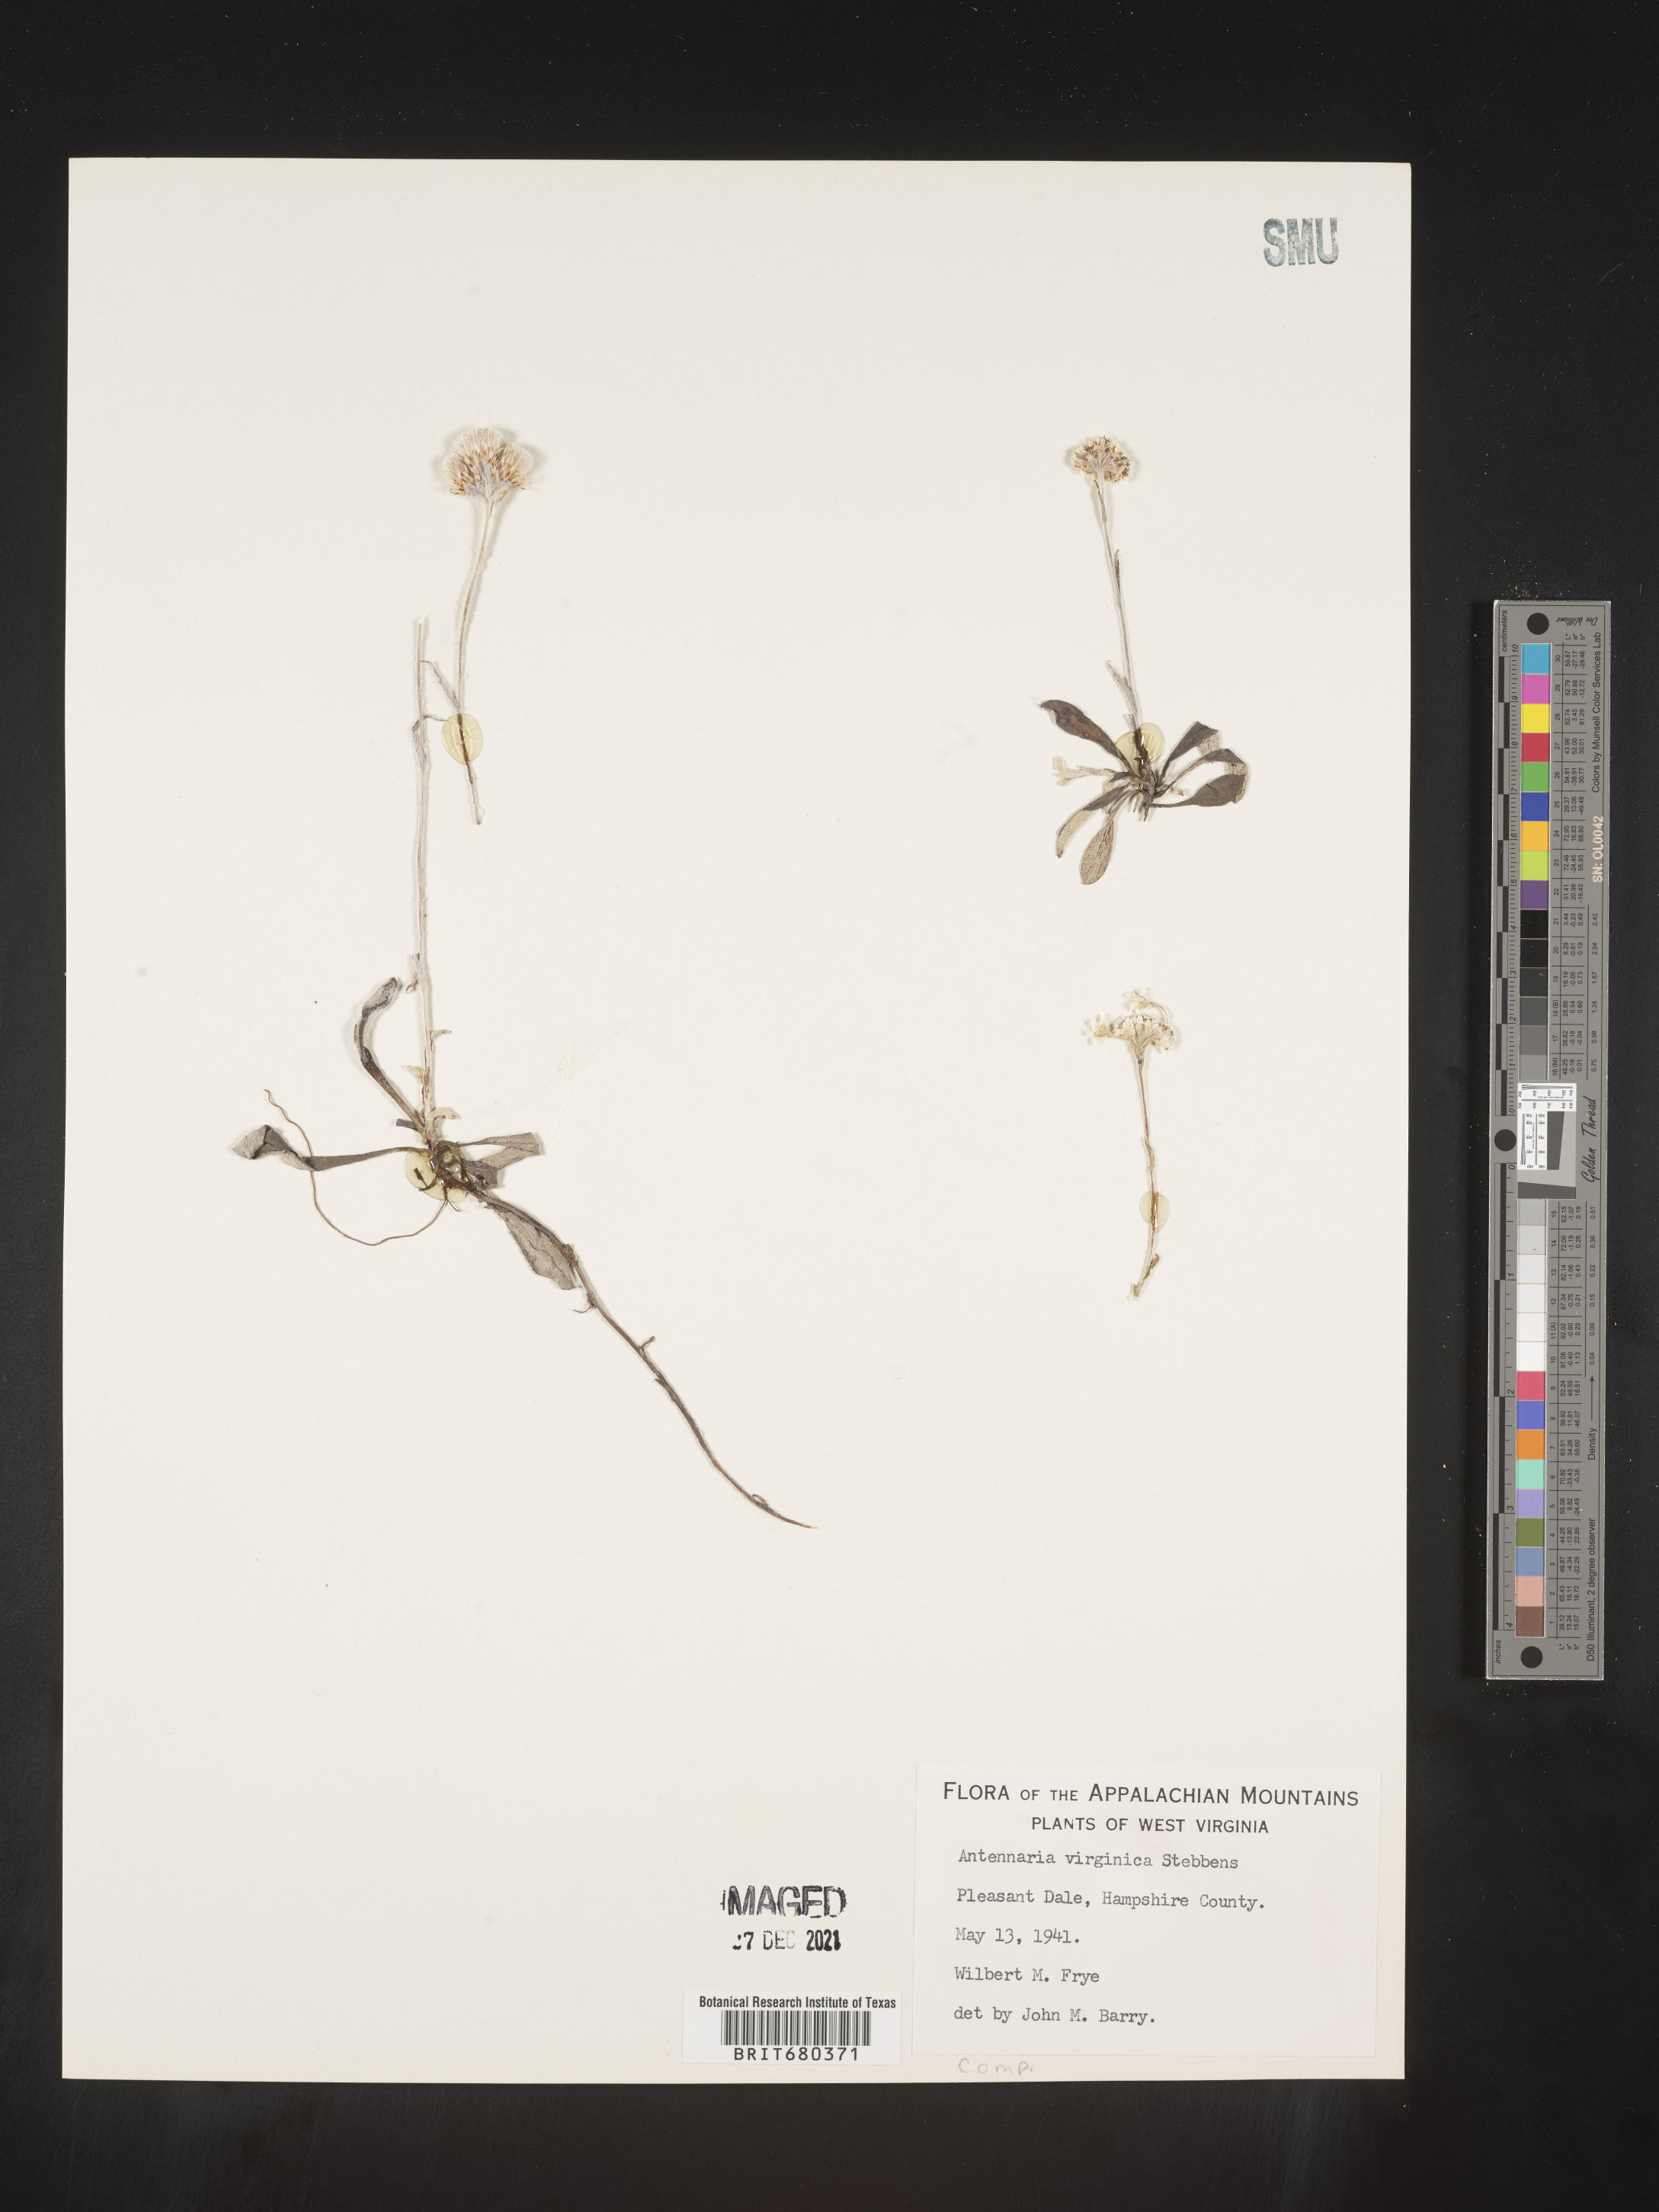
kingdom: Plantae
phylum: Tracheophyta
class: Magnoliopsida
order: Asterales
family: Asteraceae
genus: Antennaria
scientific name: Antennaria virginica
